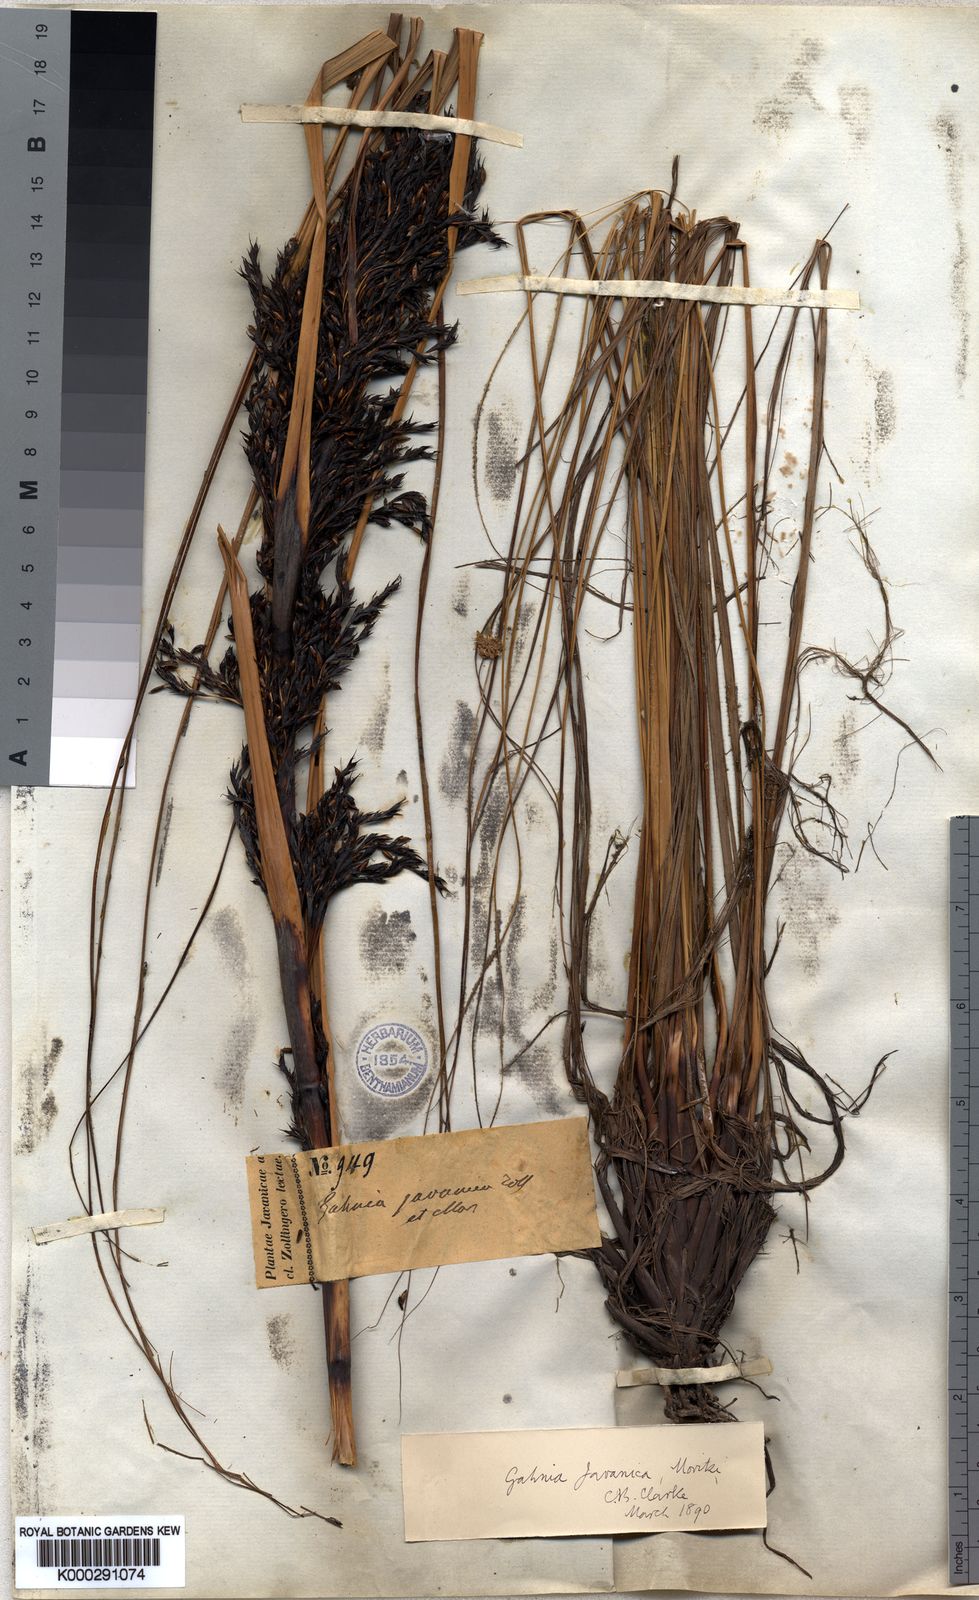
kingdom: Plantae
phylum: Tracheophyta
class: Liliopsida
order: Poales
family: Cyperaceae
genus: Gahnia
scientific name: Gahnia javanica
